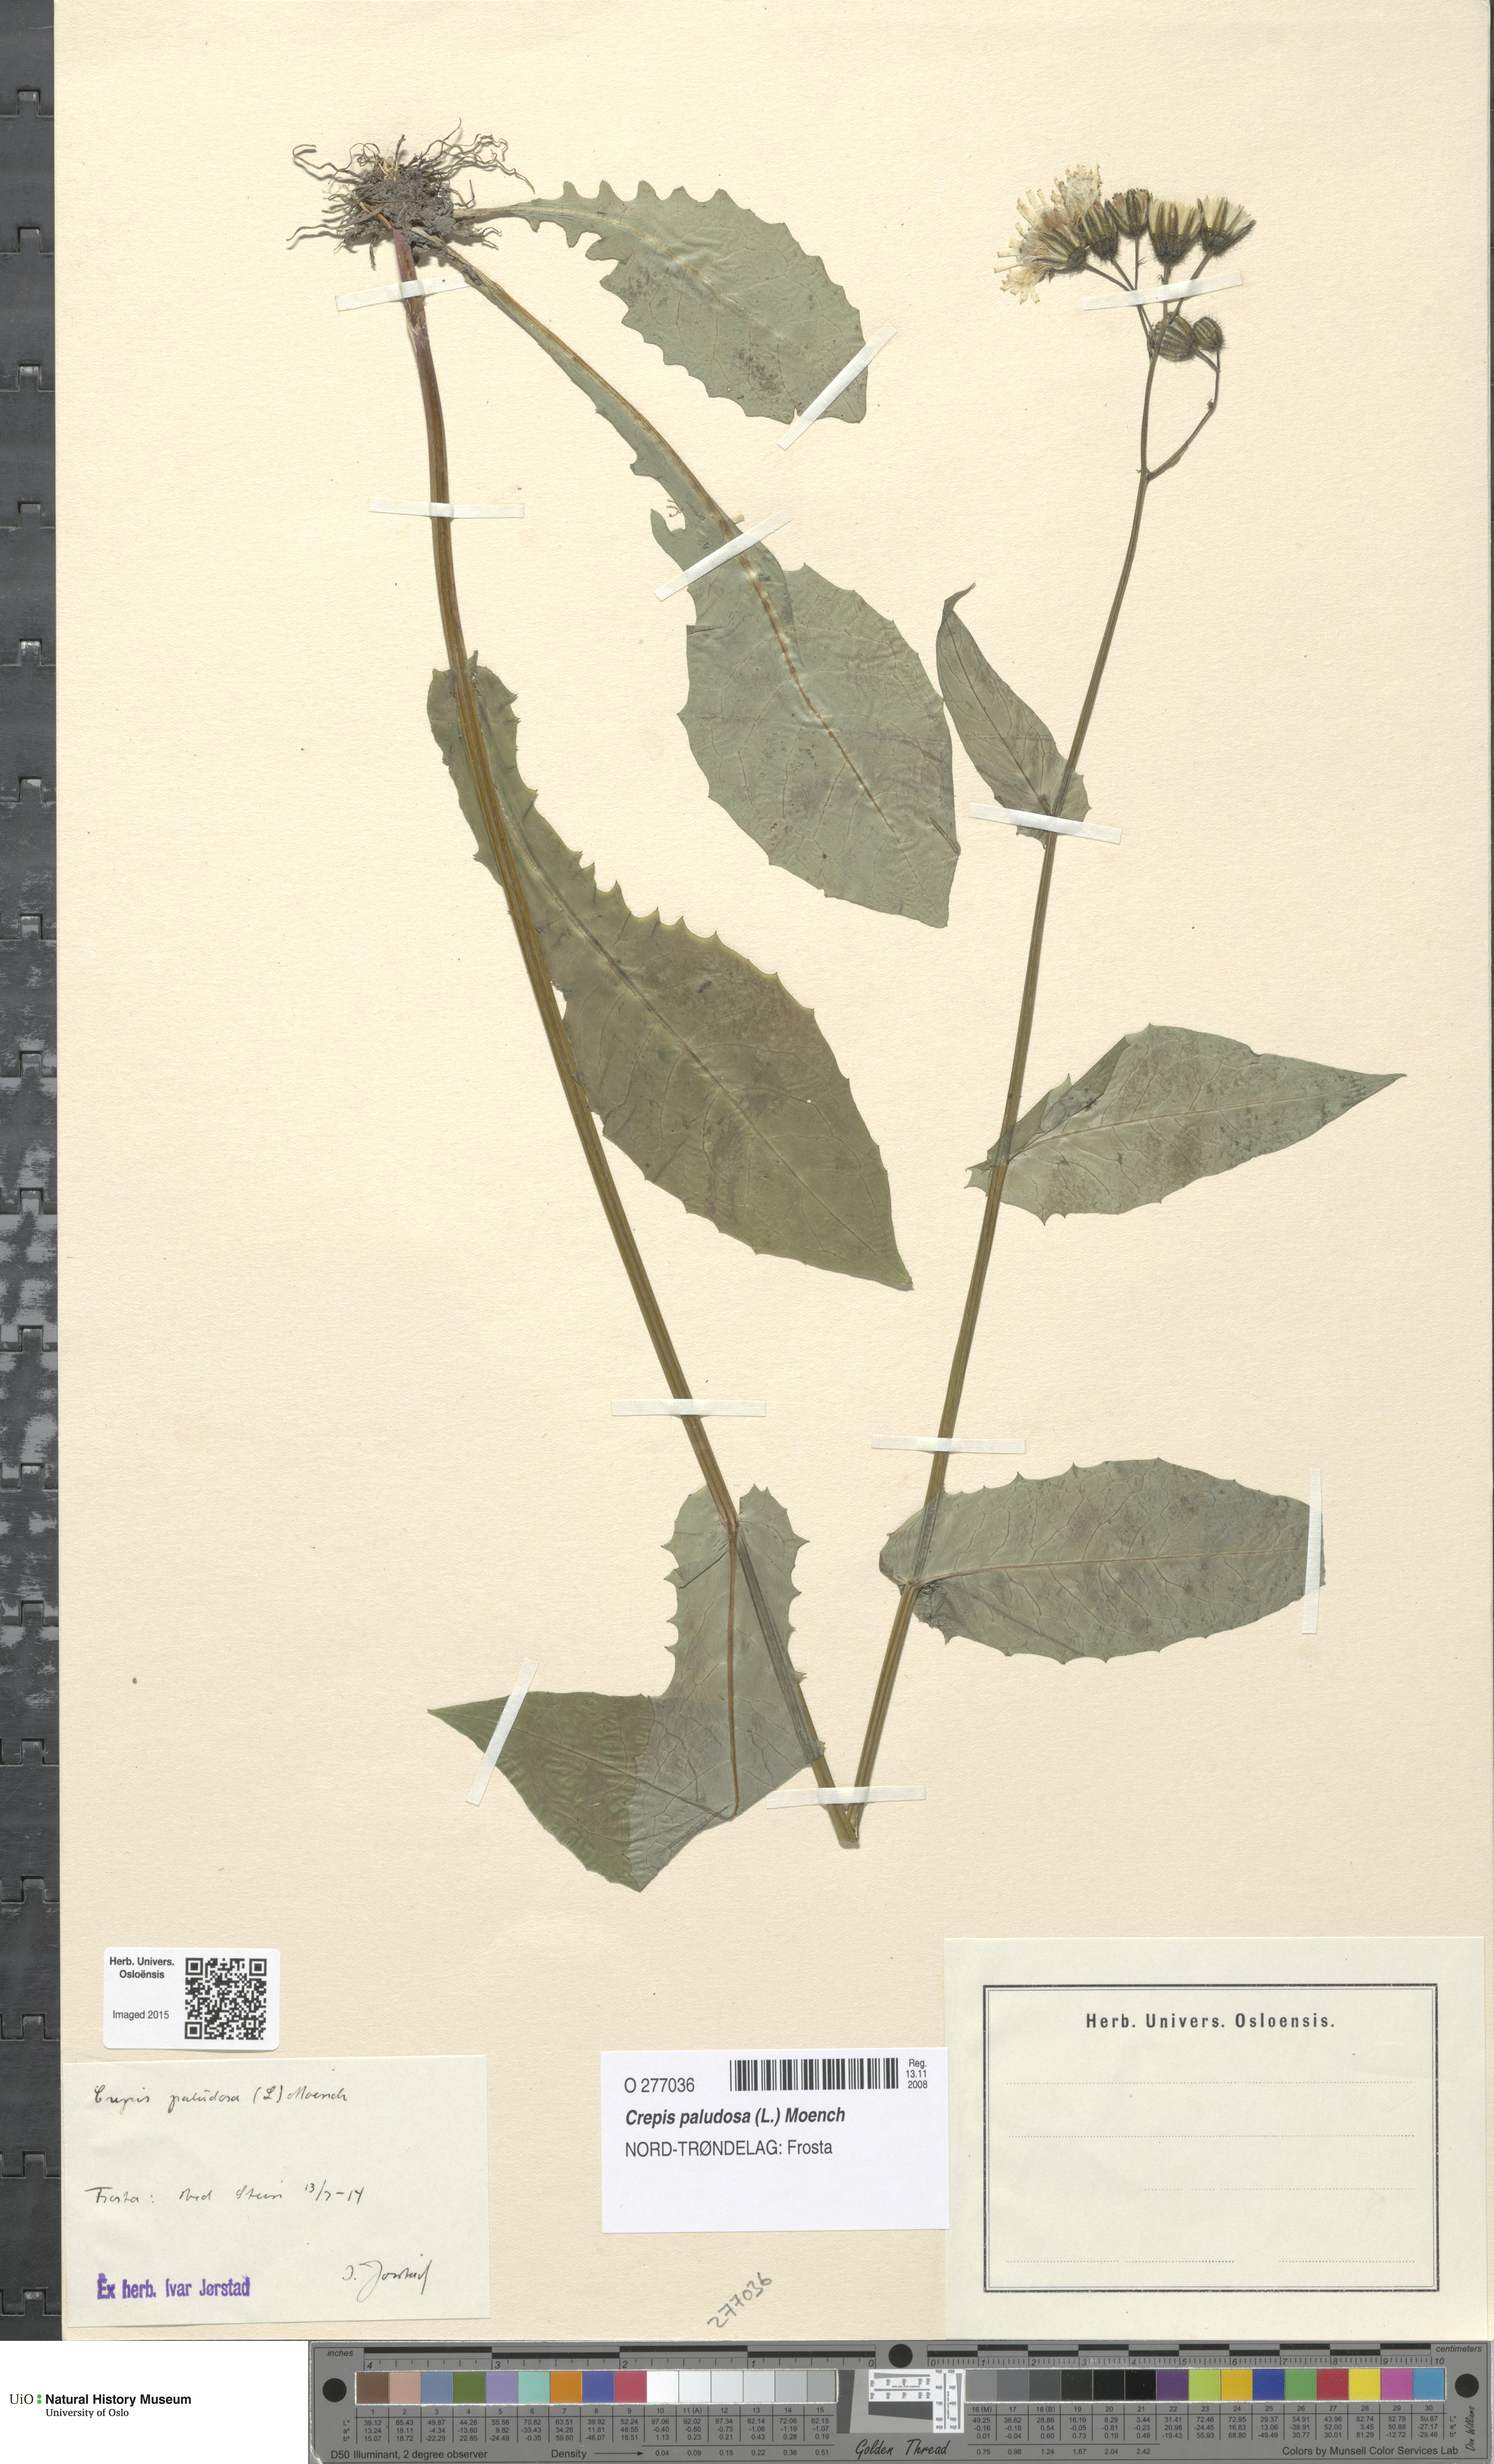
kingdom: Plantae
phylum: Tracheophyta
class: Magnoliopsida
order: Asterales
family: Asteraceae
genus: Crepis
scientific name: Crepis paludosa
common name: Marsh hawk's-beard
